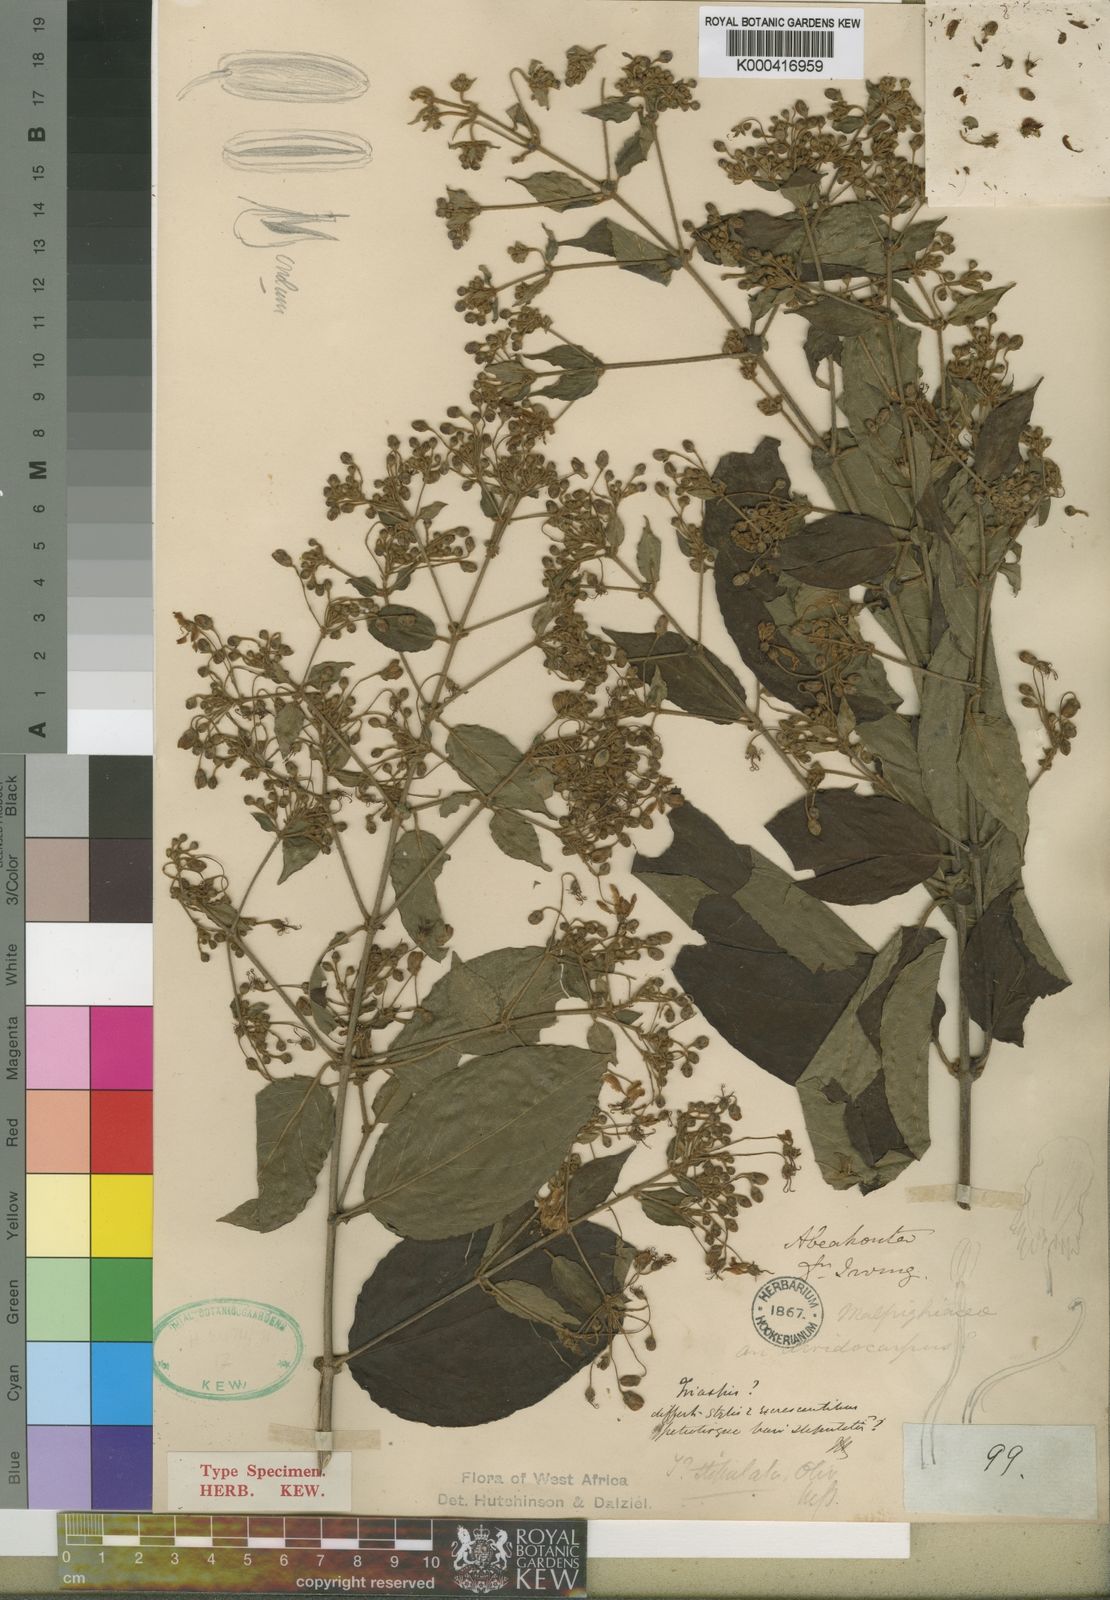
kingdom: Plantae
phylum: Tracheophyta
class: Magnoliopsida
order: Malpighiales
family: Malpighiaceae
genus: Triaspis
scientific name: Triaspis stipulata
